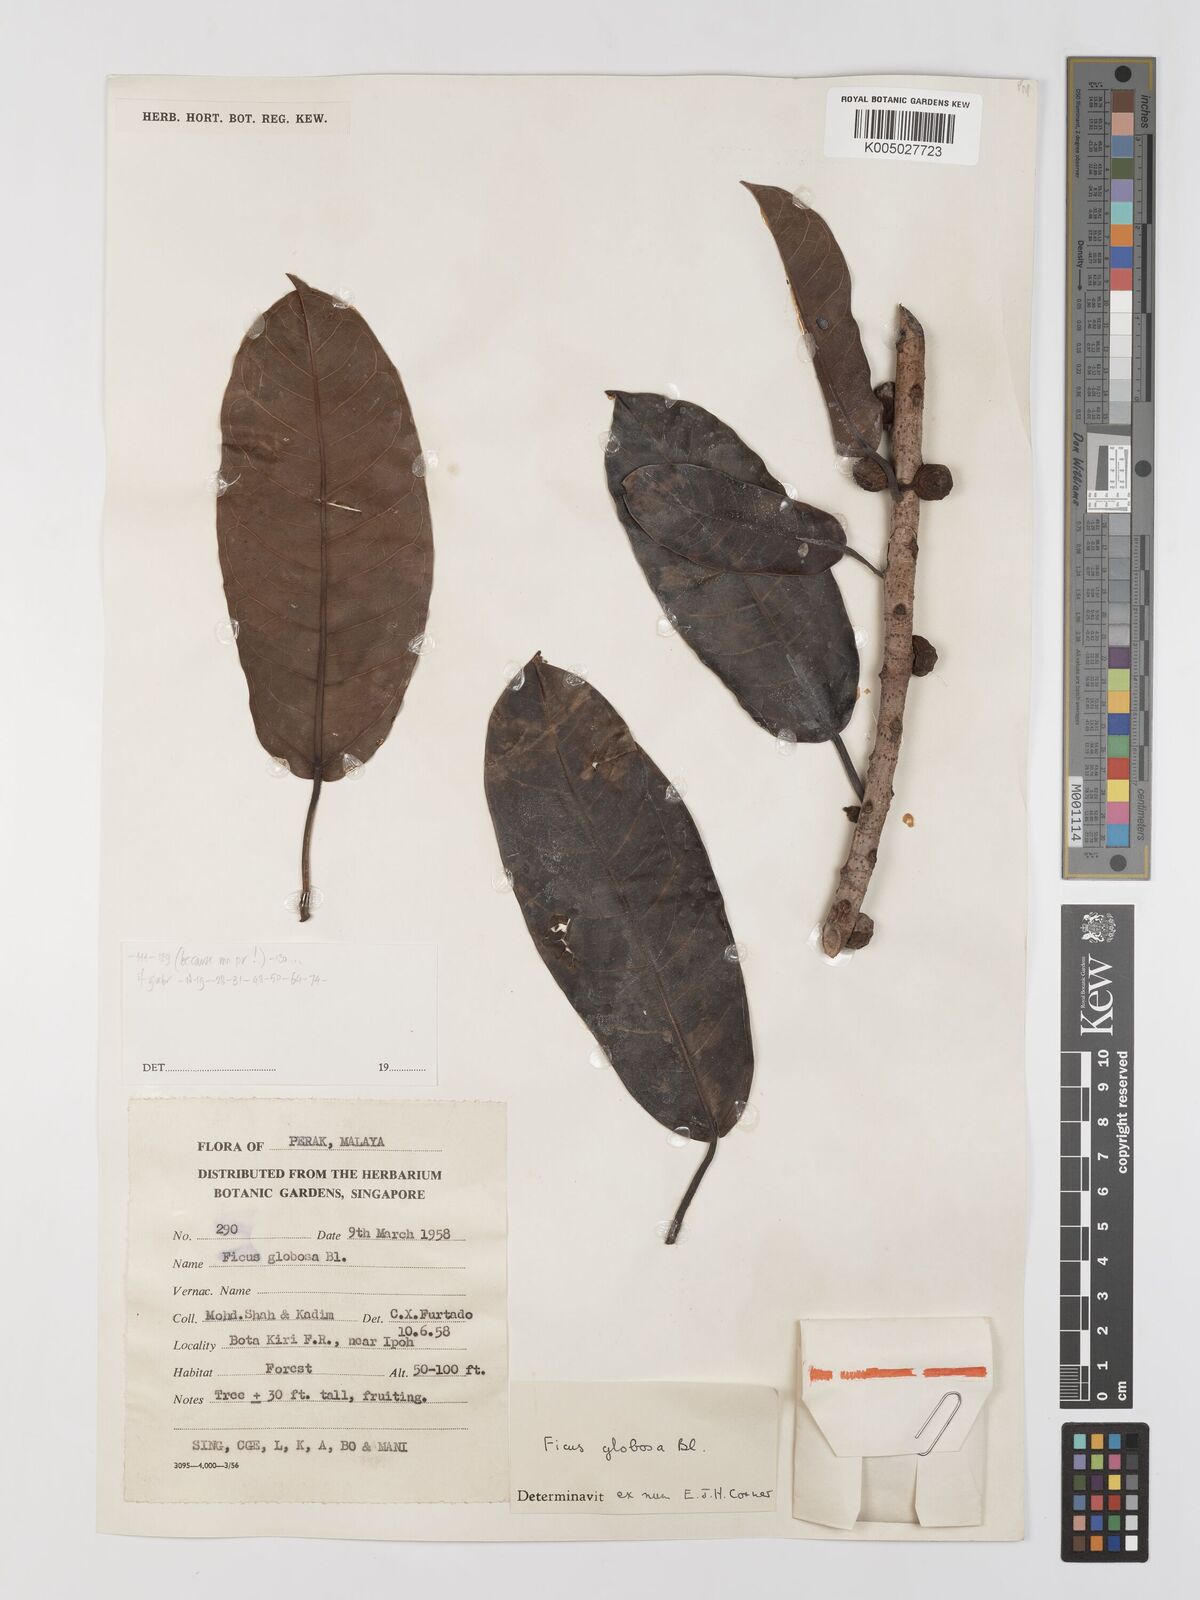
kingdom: Plantae
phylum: Tracheophyta
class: Magnoliopsida
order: Rosales
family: Moraceae
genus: Ficus
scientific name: Ficus
